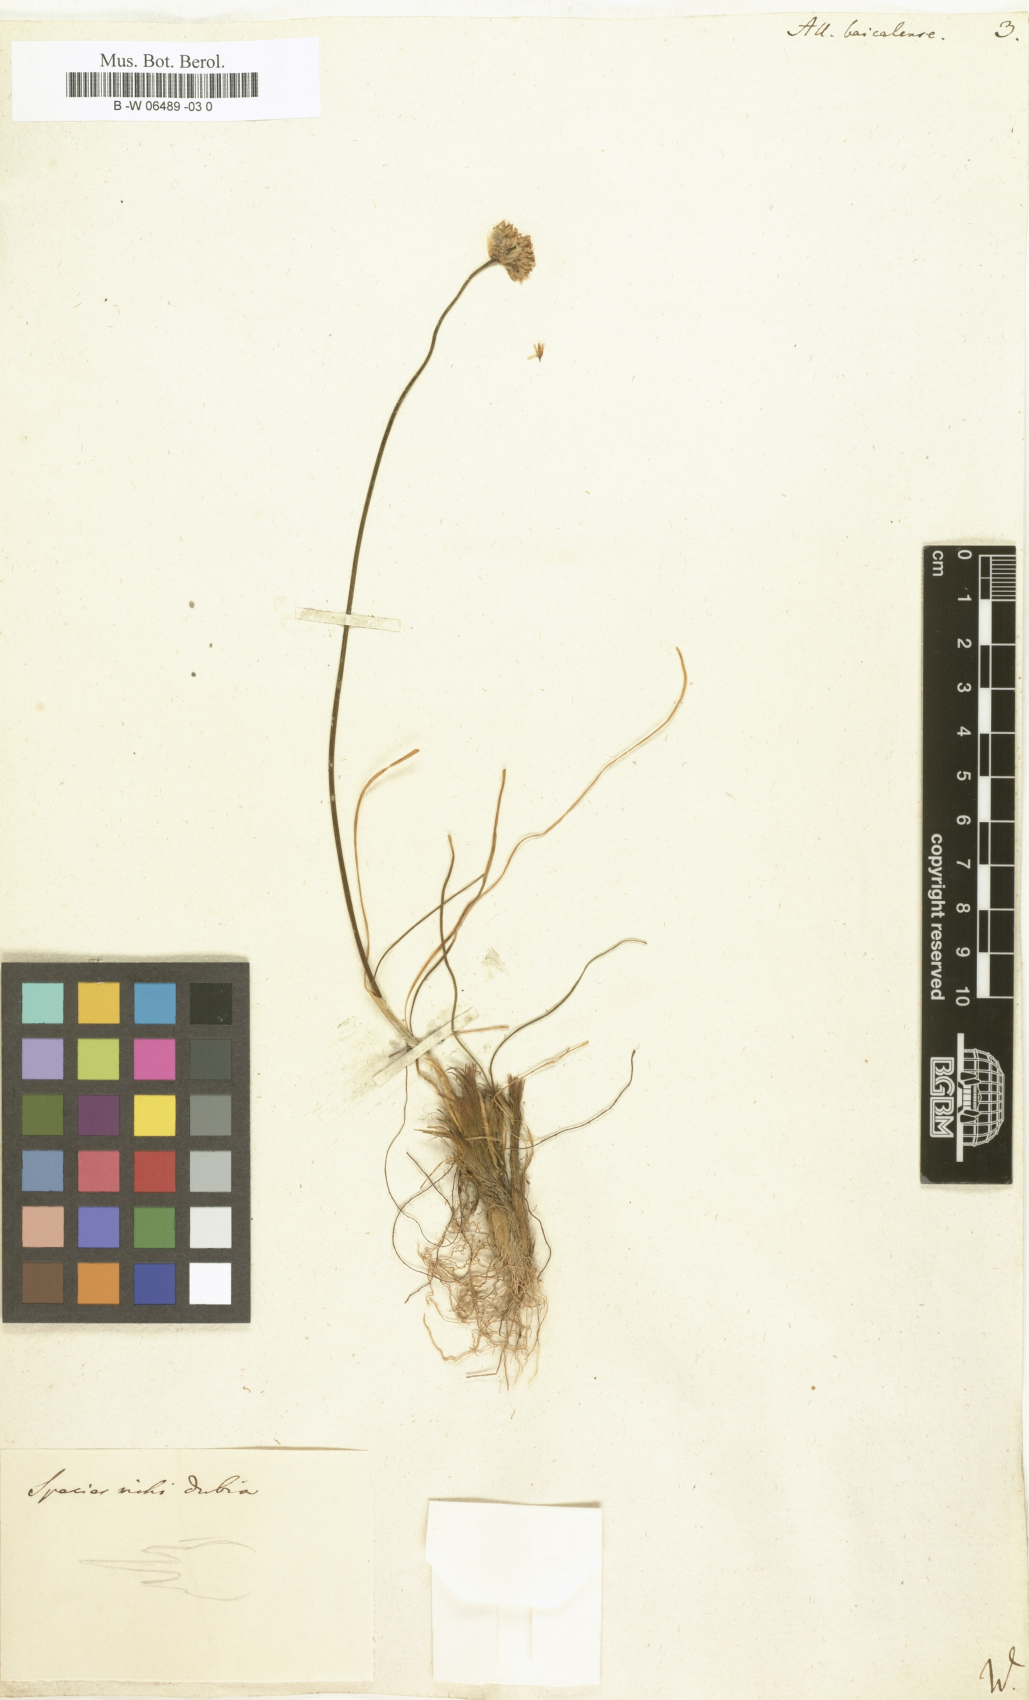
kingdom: Plantae
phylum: Tracheophyta
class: Liliopsida
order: Asparagales
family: Amaryllidaceae
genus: Allium
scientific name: Allium senescens
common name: German garlic
